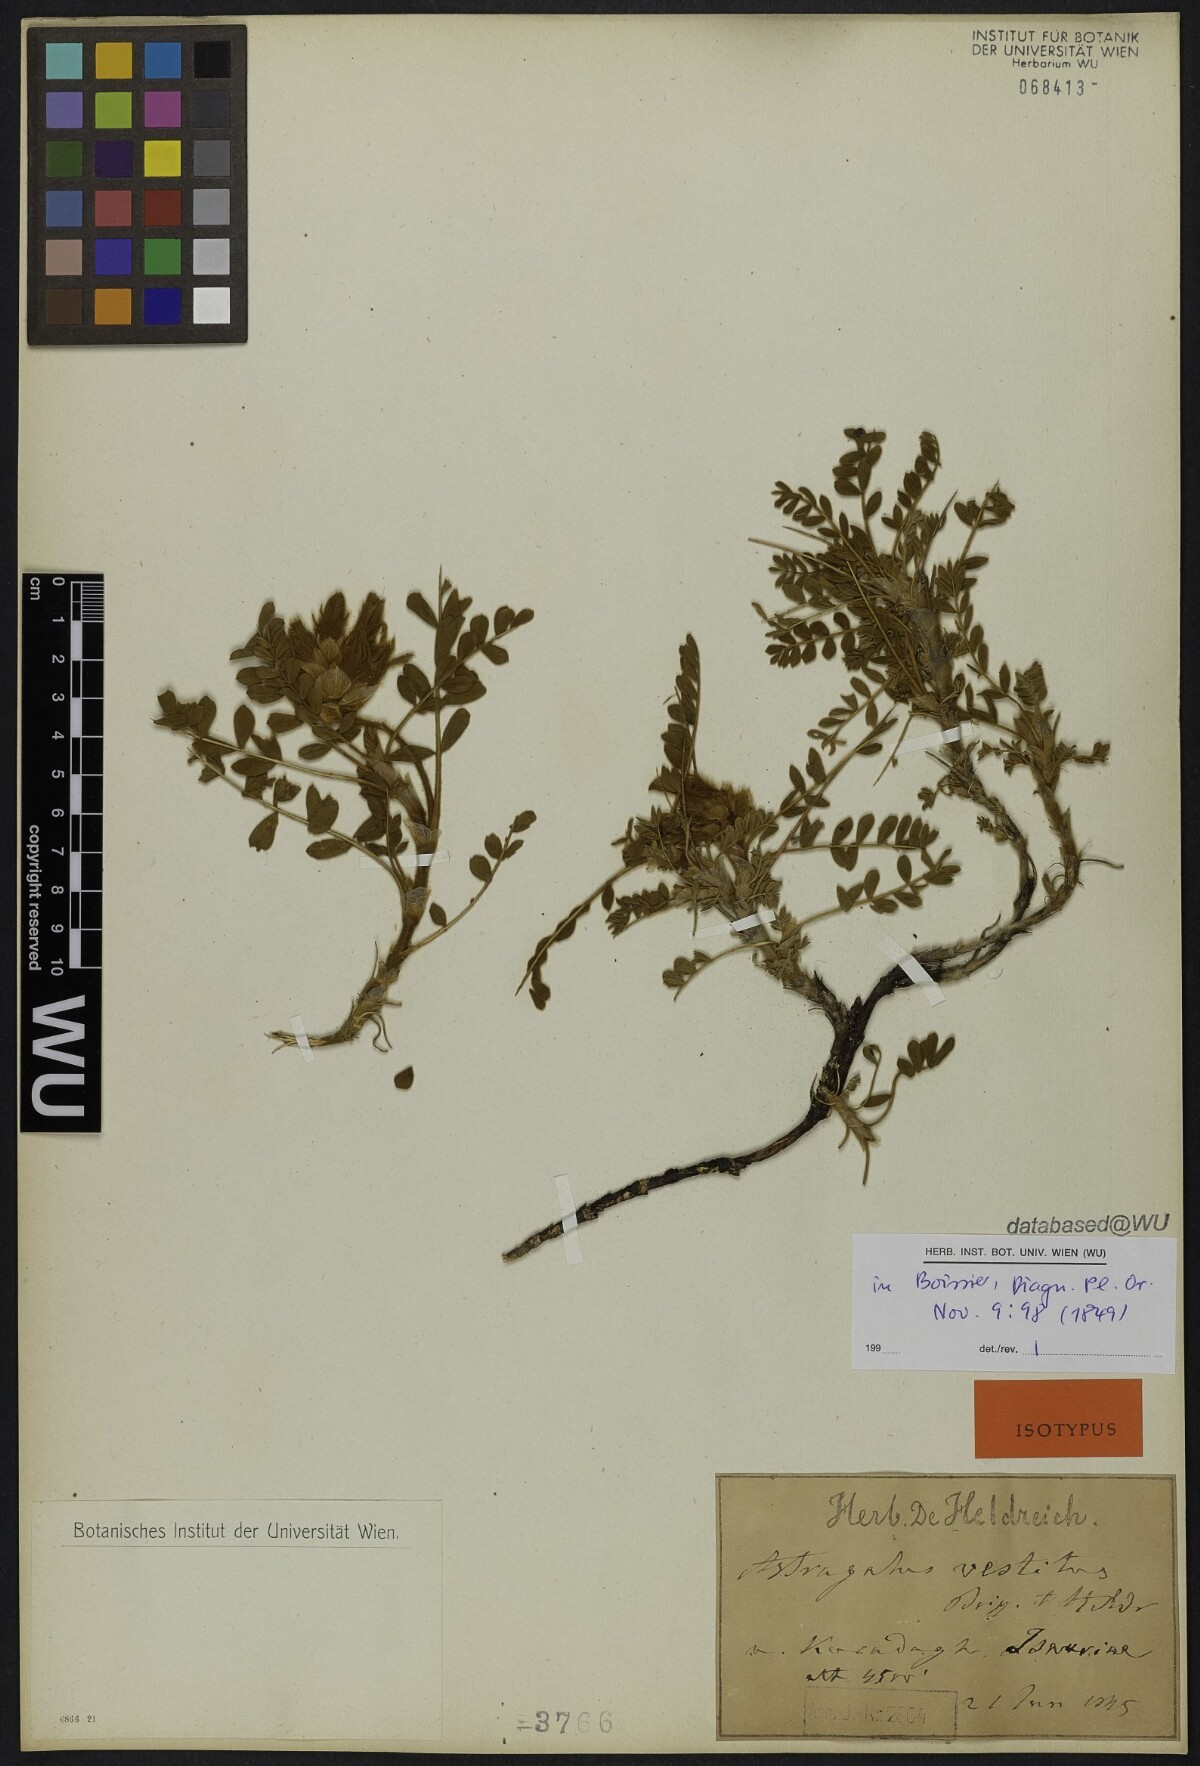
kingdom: Plantae
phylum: Tracheophyta
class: Magnoliopsida
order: Fabales
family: Fabaceae
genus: Astragalus
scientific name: Astragalus vestitus
